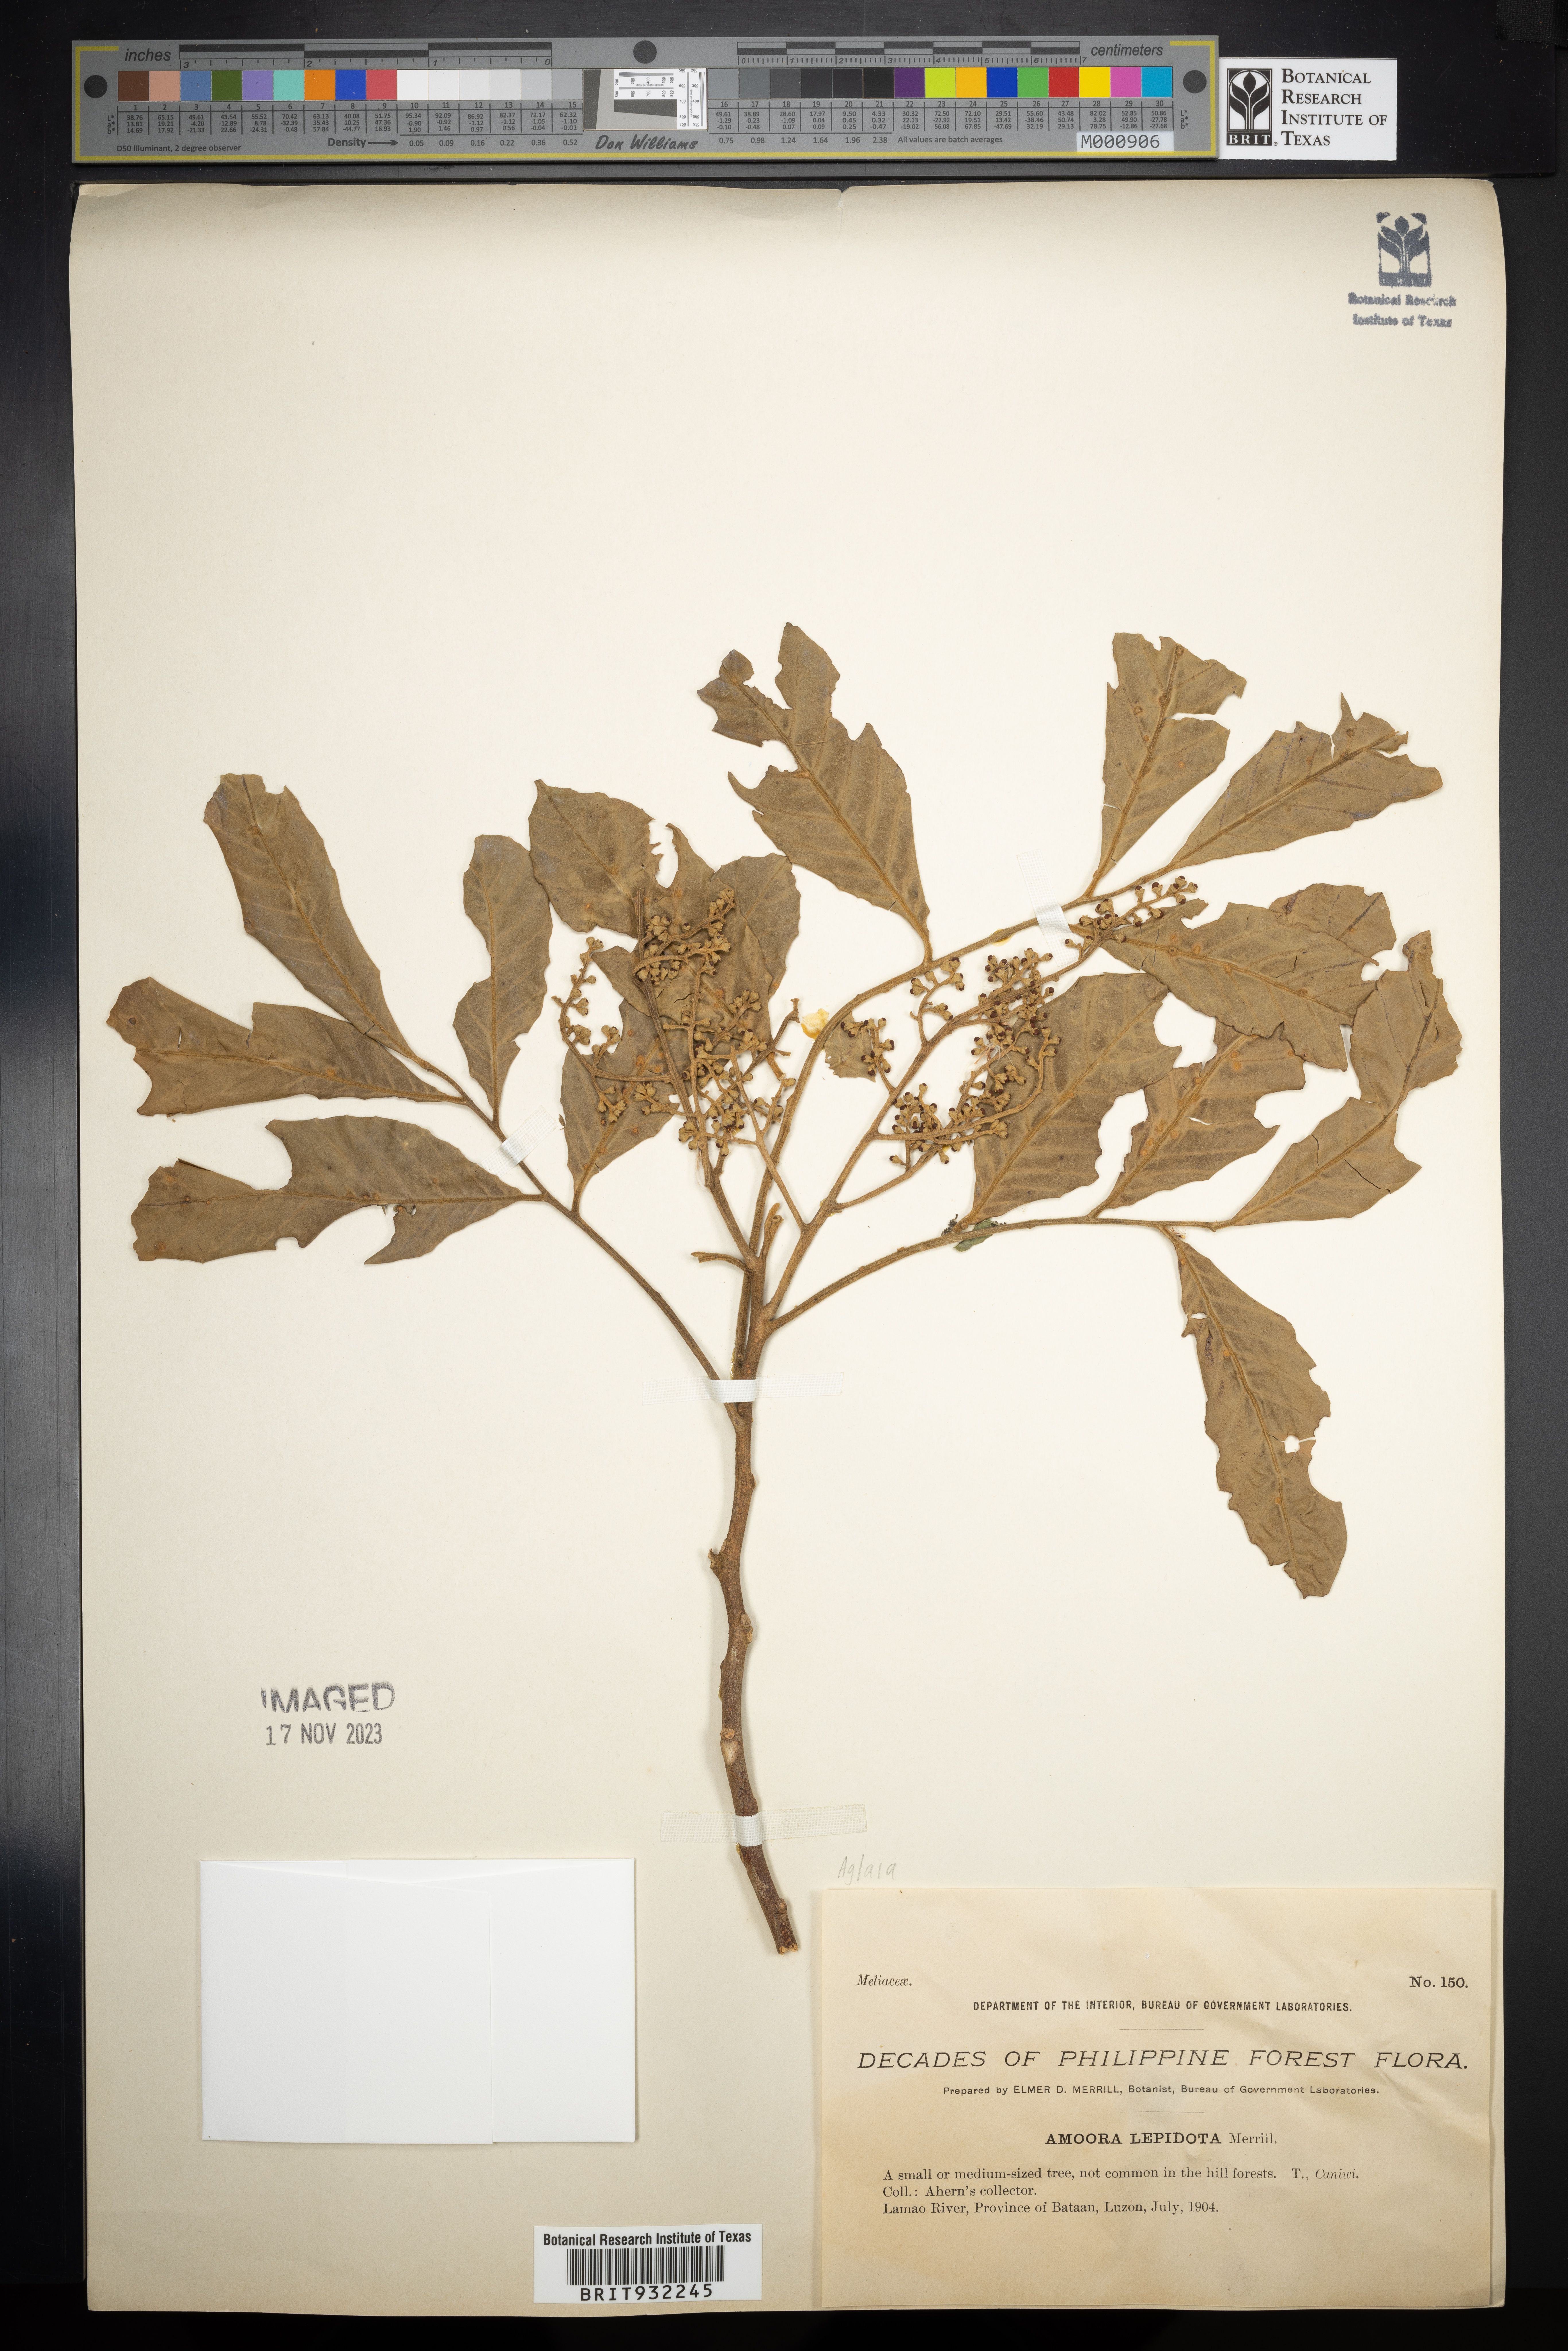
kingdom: Plantae
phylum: Tracheophyta
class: Magnoliopsida
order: Sapindales
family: Meliaceae
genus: Aglaia
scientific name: Aglaia
